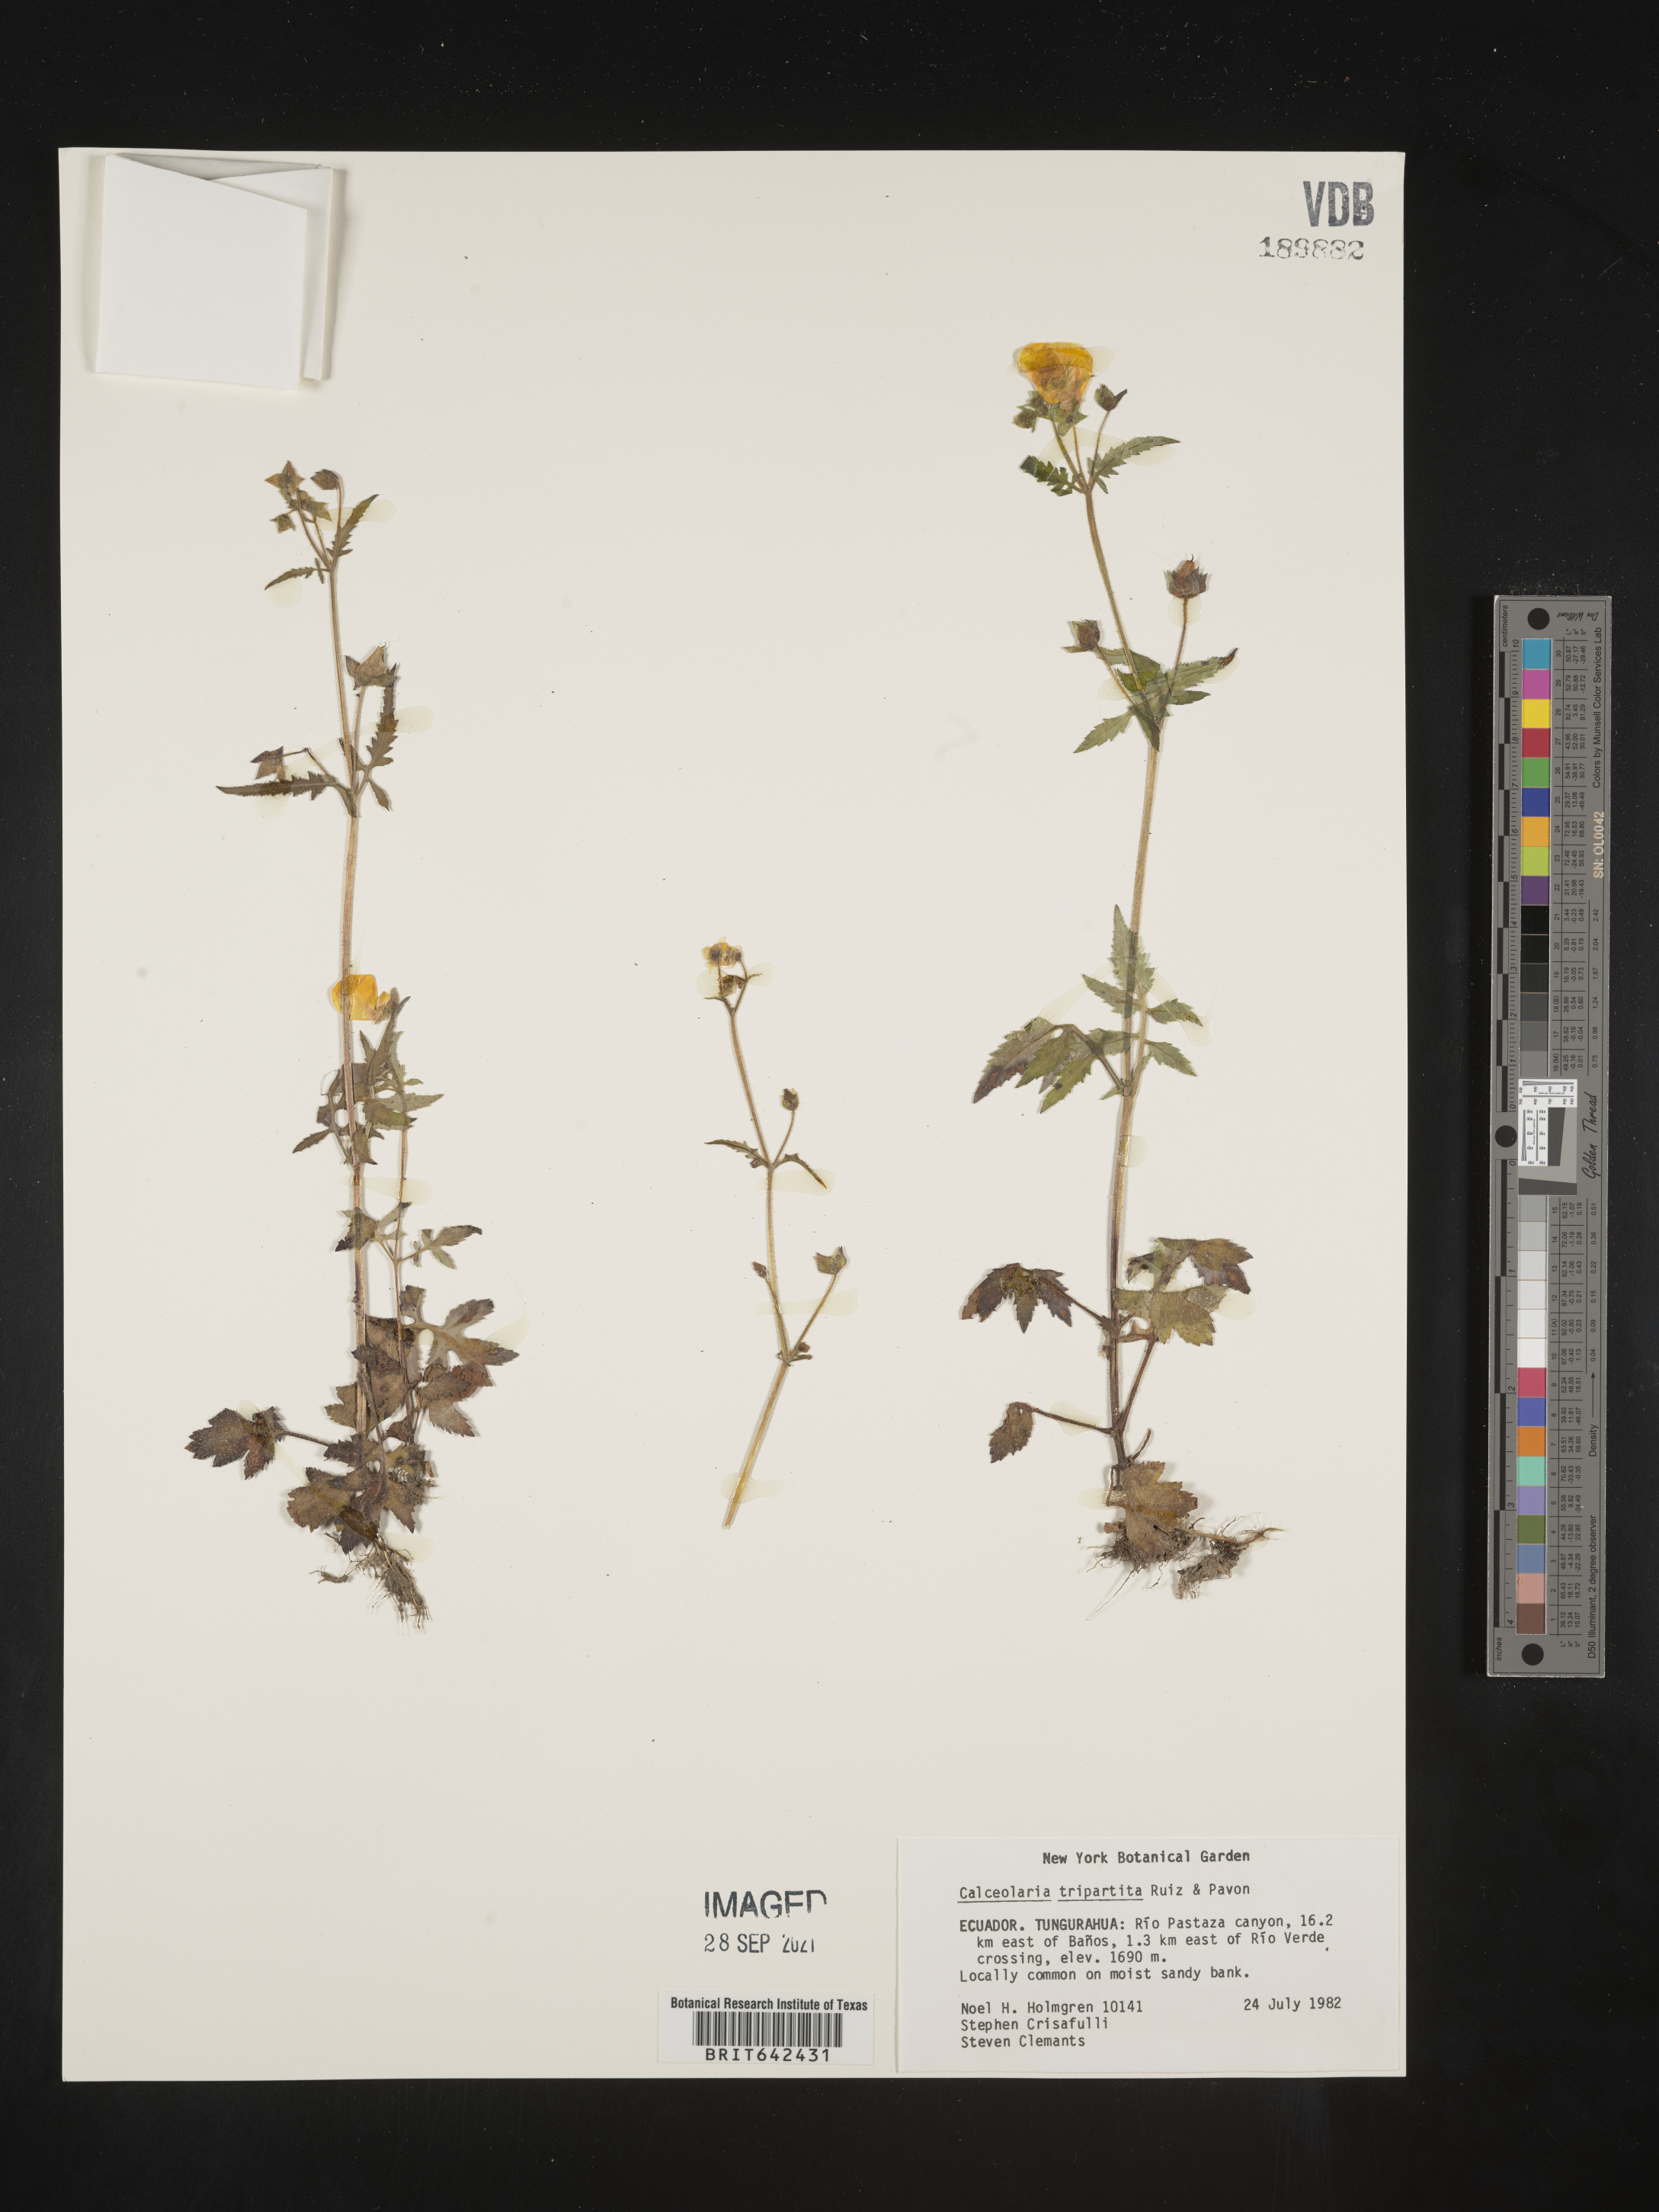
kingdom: Plantae
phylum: Tracheophyta
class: Magnoliopsida
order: Lamiales
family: Calceolariaceae
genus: Calceolaria
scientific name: Calceolaria tripartita
